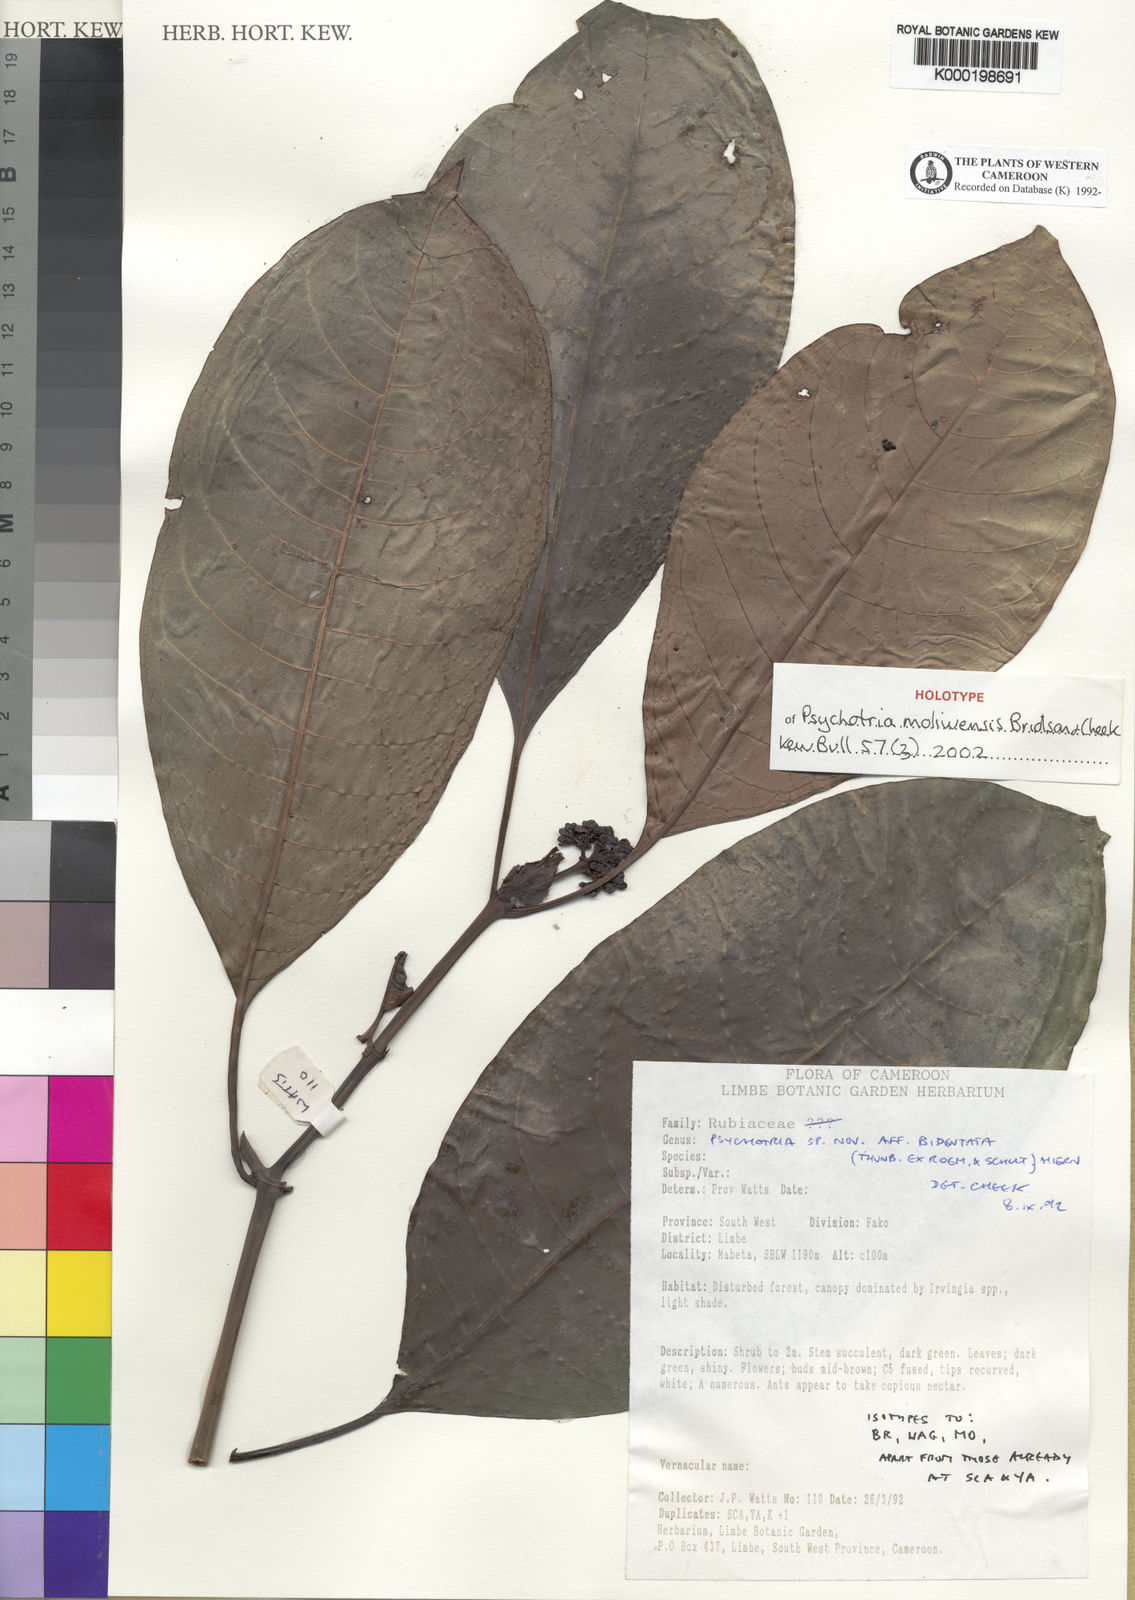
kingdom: Plantae
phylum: Tracheophyta
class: Magnoliopsida
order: Gentianales
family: Rubiaceae
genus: Psychotria
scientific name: Psychotria fernandopoensis
